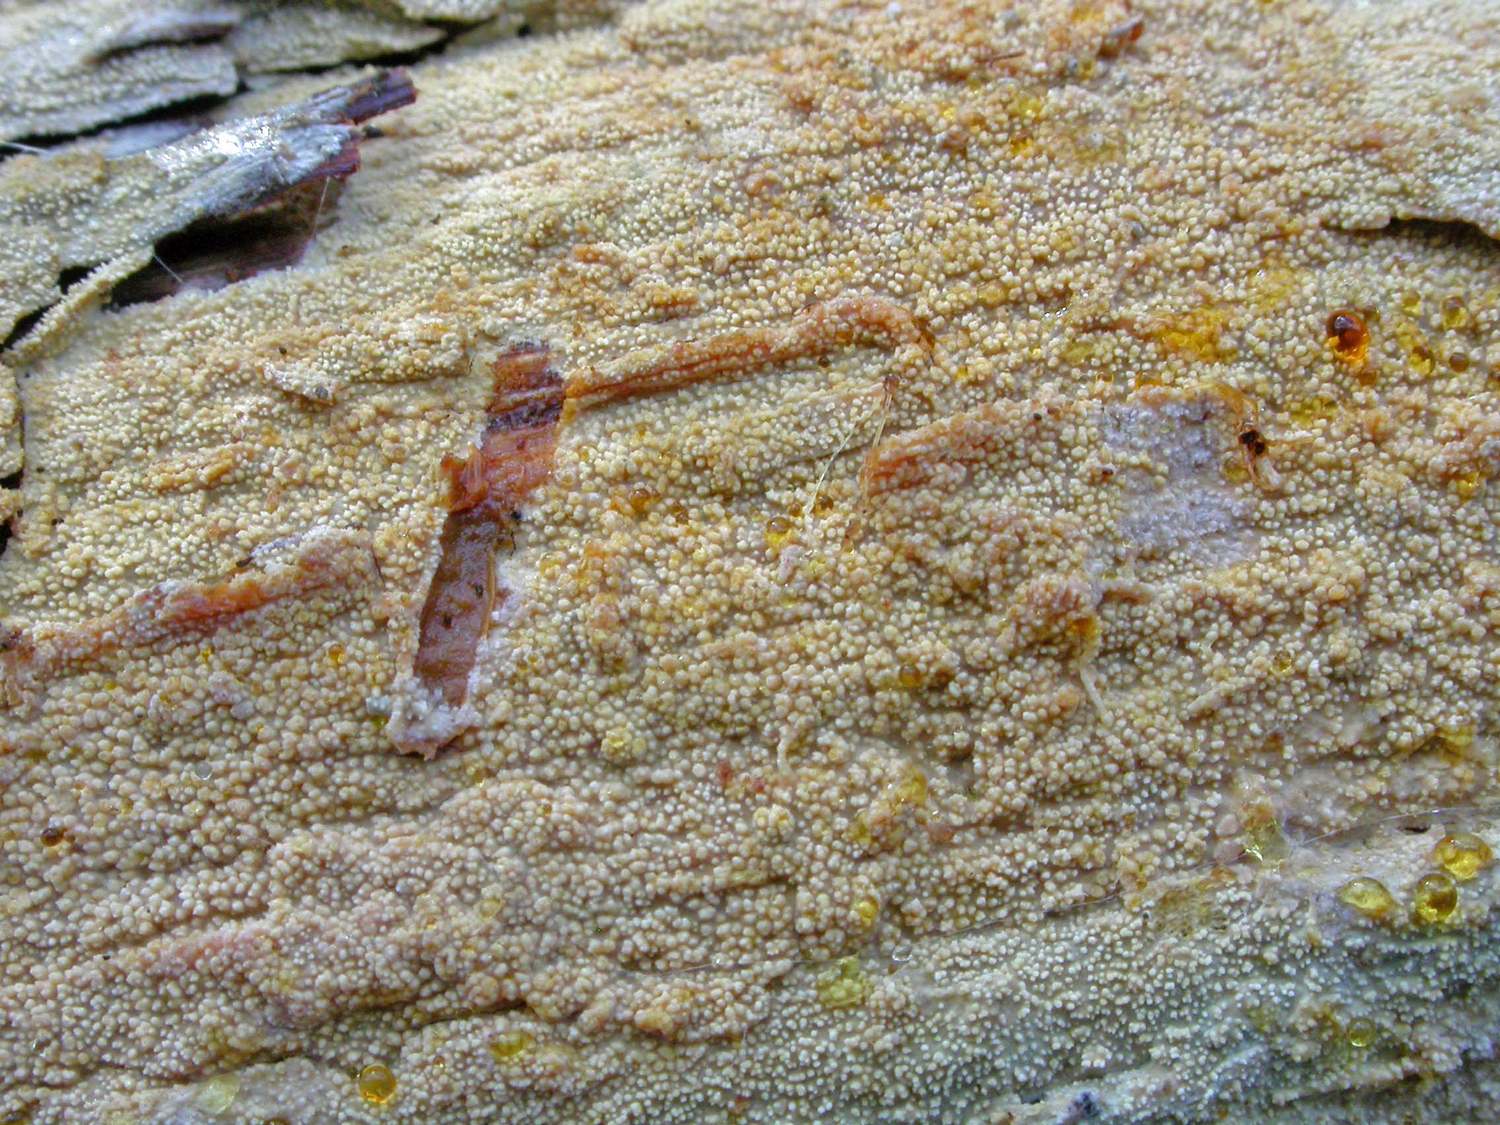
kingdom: Fungi
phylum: Basidiomycota
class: Agaricomycetes
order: Hymenochaetales
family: Rickenellaceae
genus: Resinicium
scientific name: Resinicium bicolor
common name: almindelig vokstand
